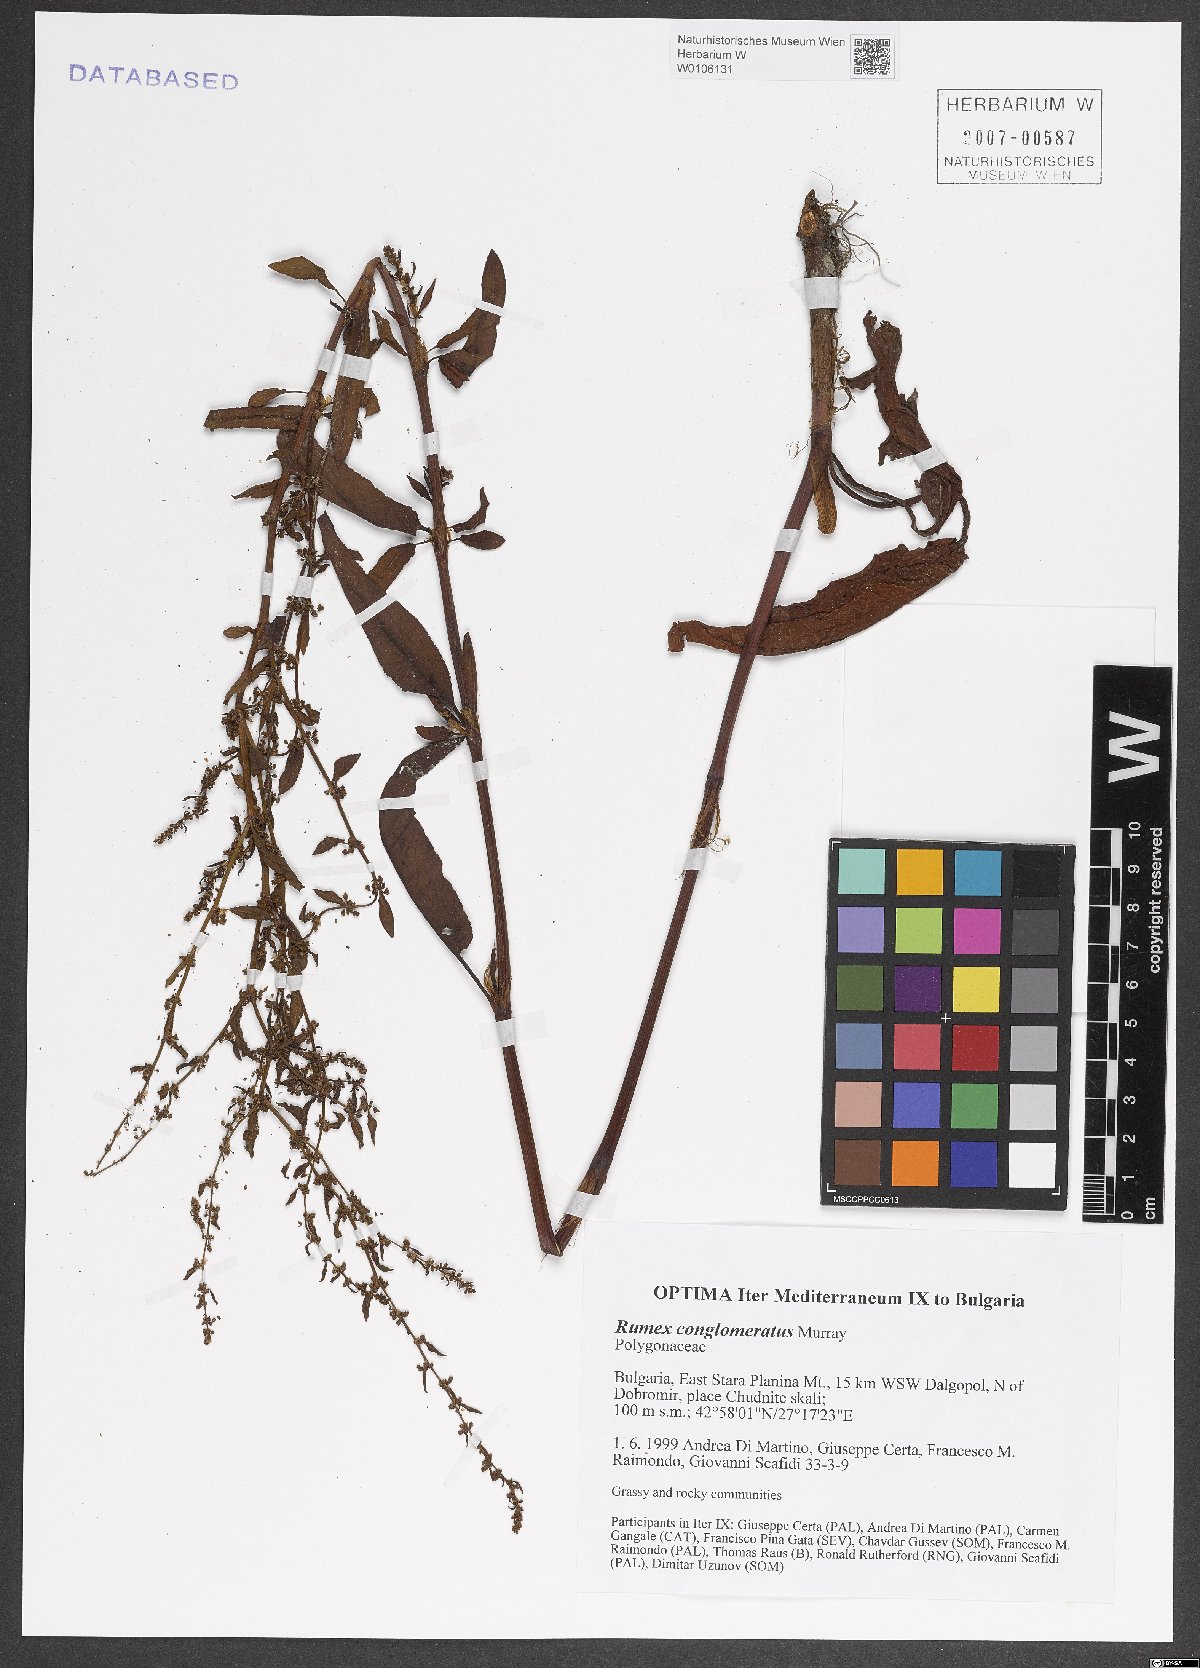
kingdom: Plantae
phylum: Tracheophyta
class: Magnoliopsida
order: Caryophyllales
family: Polygonaceae
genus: Rumex
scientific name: Rumex conglomeratus
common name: Clustered dock
